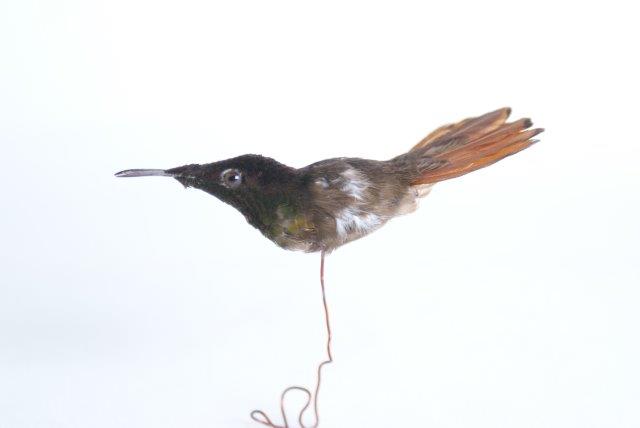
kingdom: Animalia
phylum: Chordata
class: Aves
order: Apodiformes
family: Trochilidae
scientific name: Trochilidae
